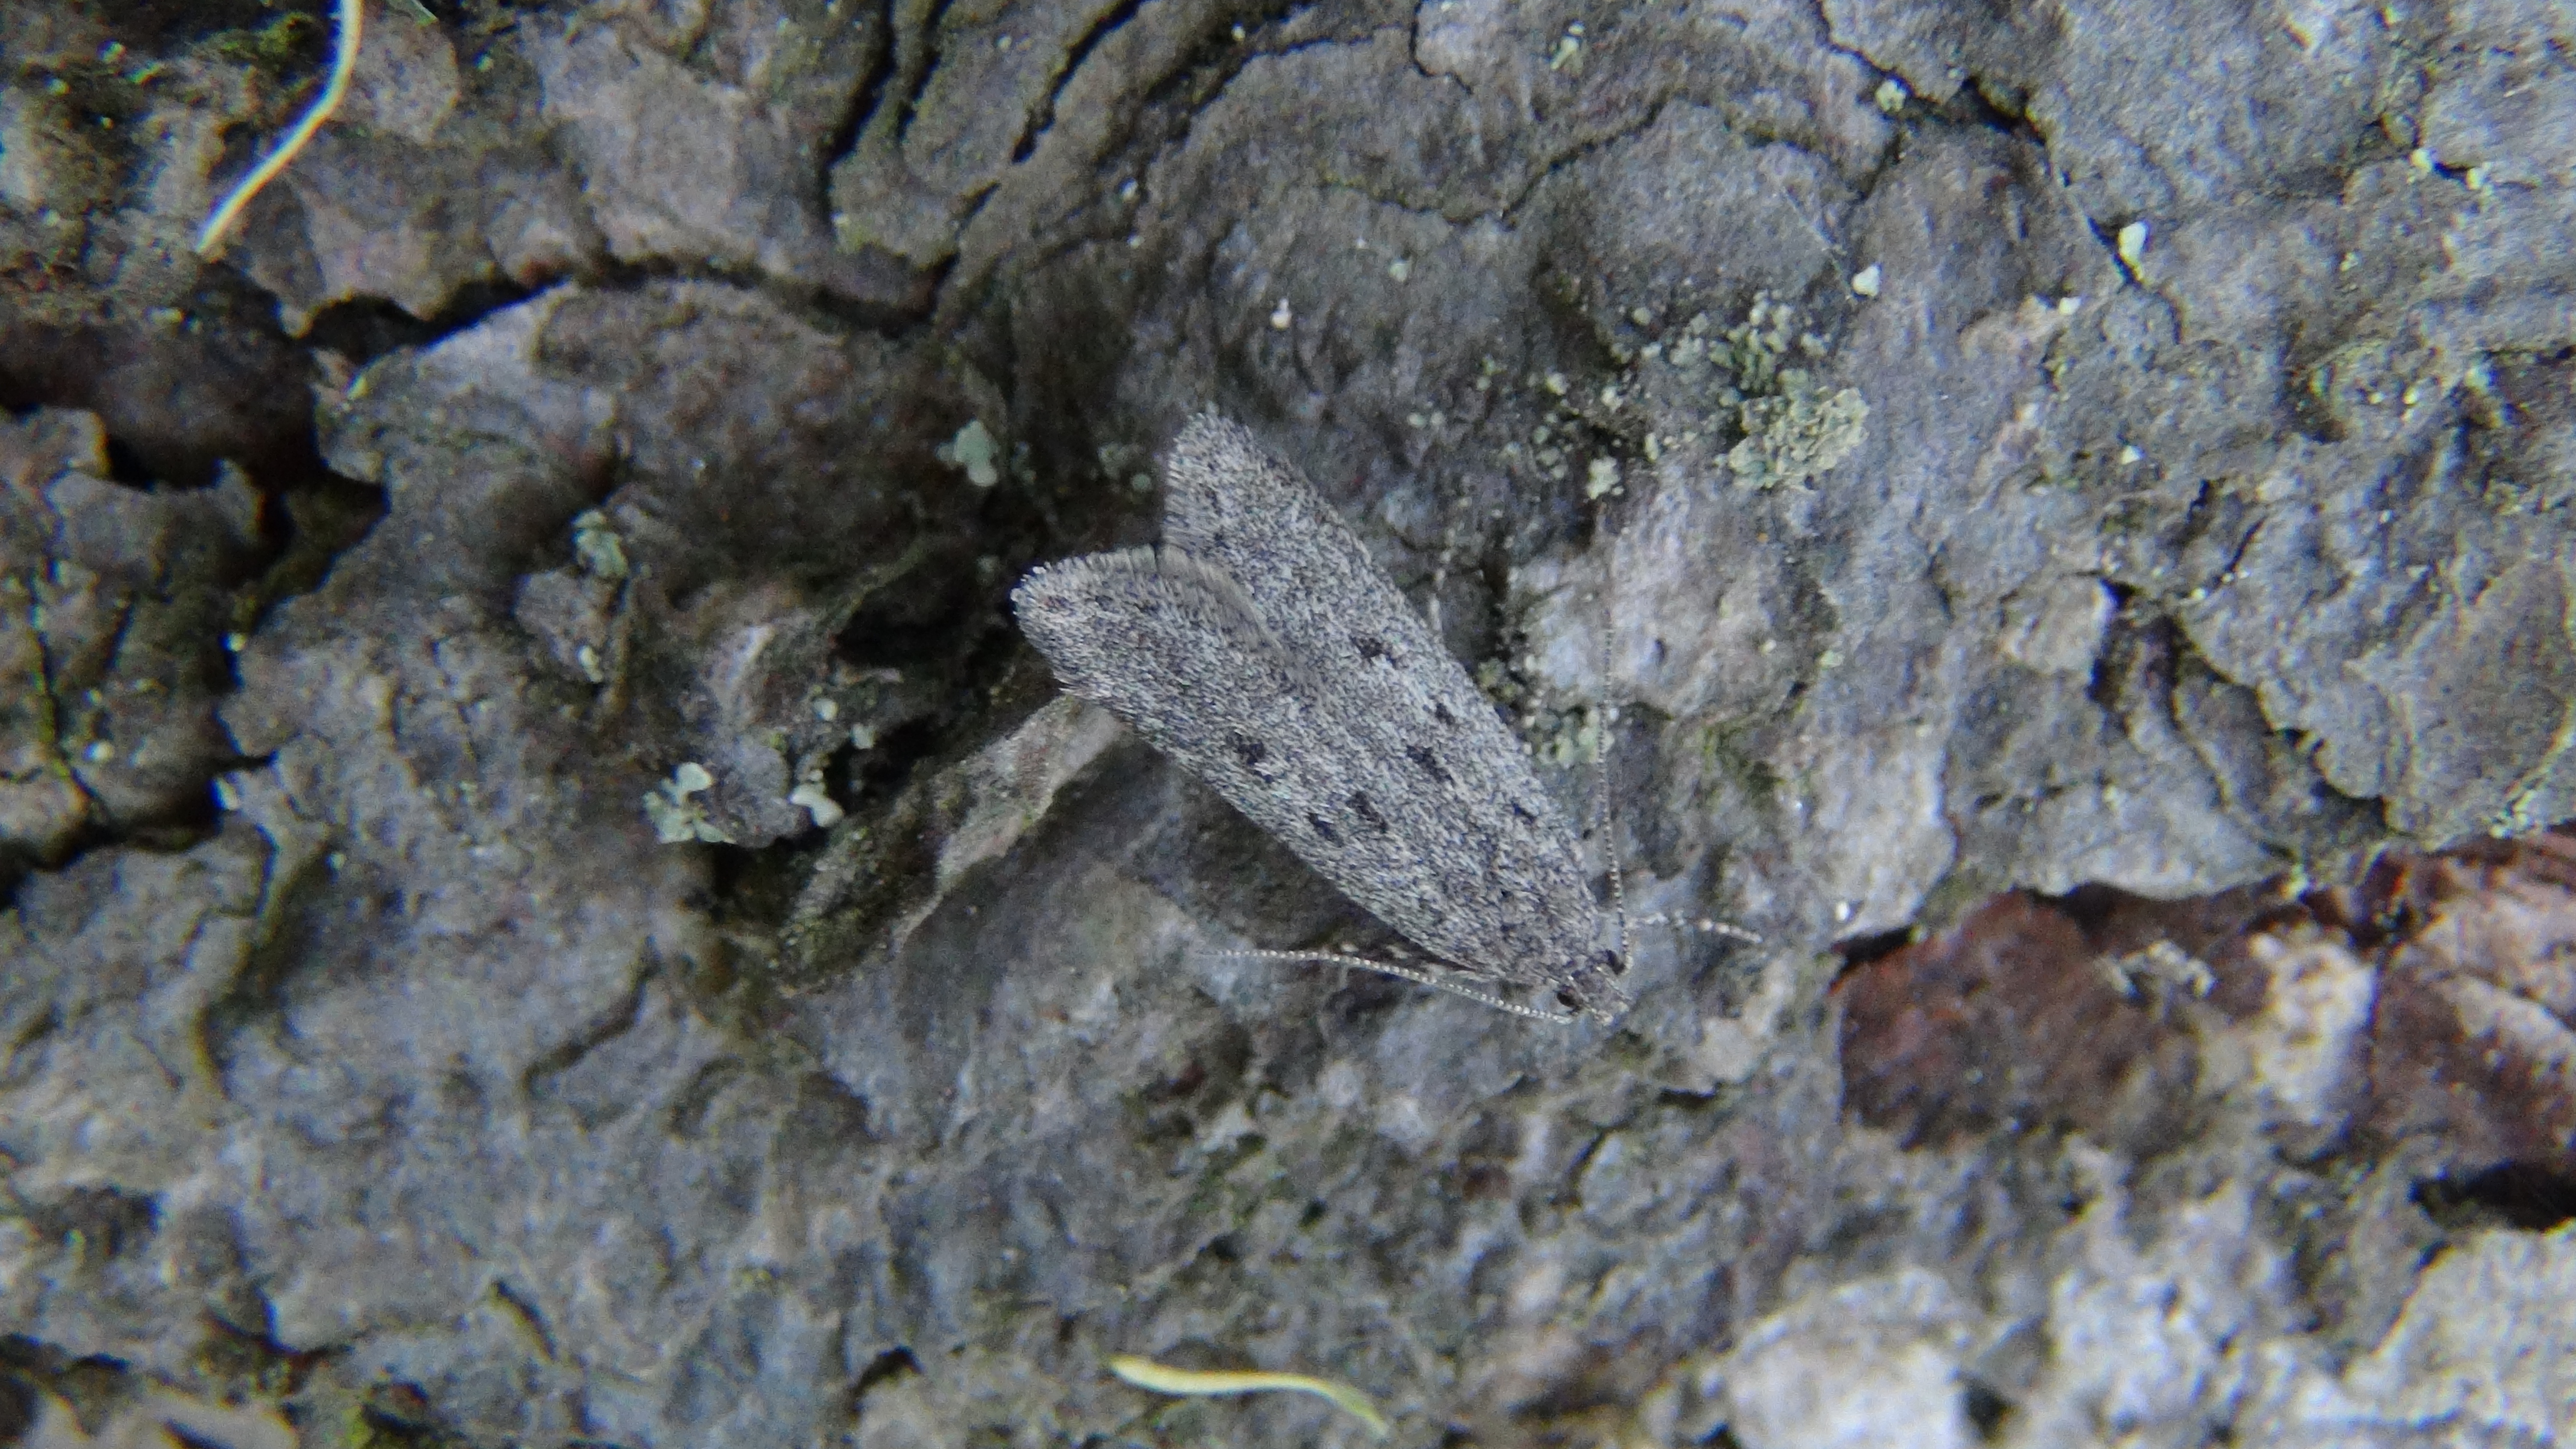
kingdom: Animalia
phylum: Arthropoda
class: Insecta
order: Lepidoptera
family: Gelechiidae
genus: Chionodes
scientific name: Chionodes tragicella
